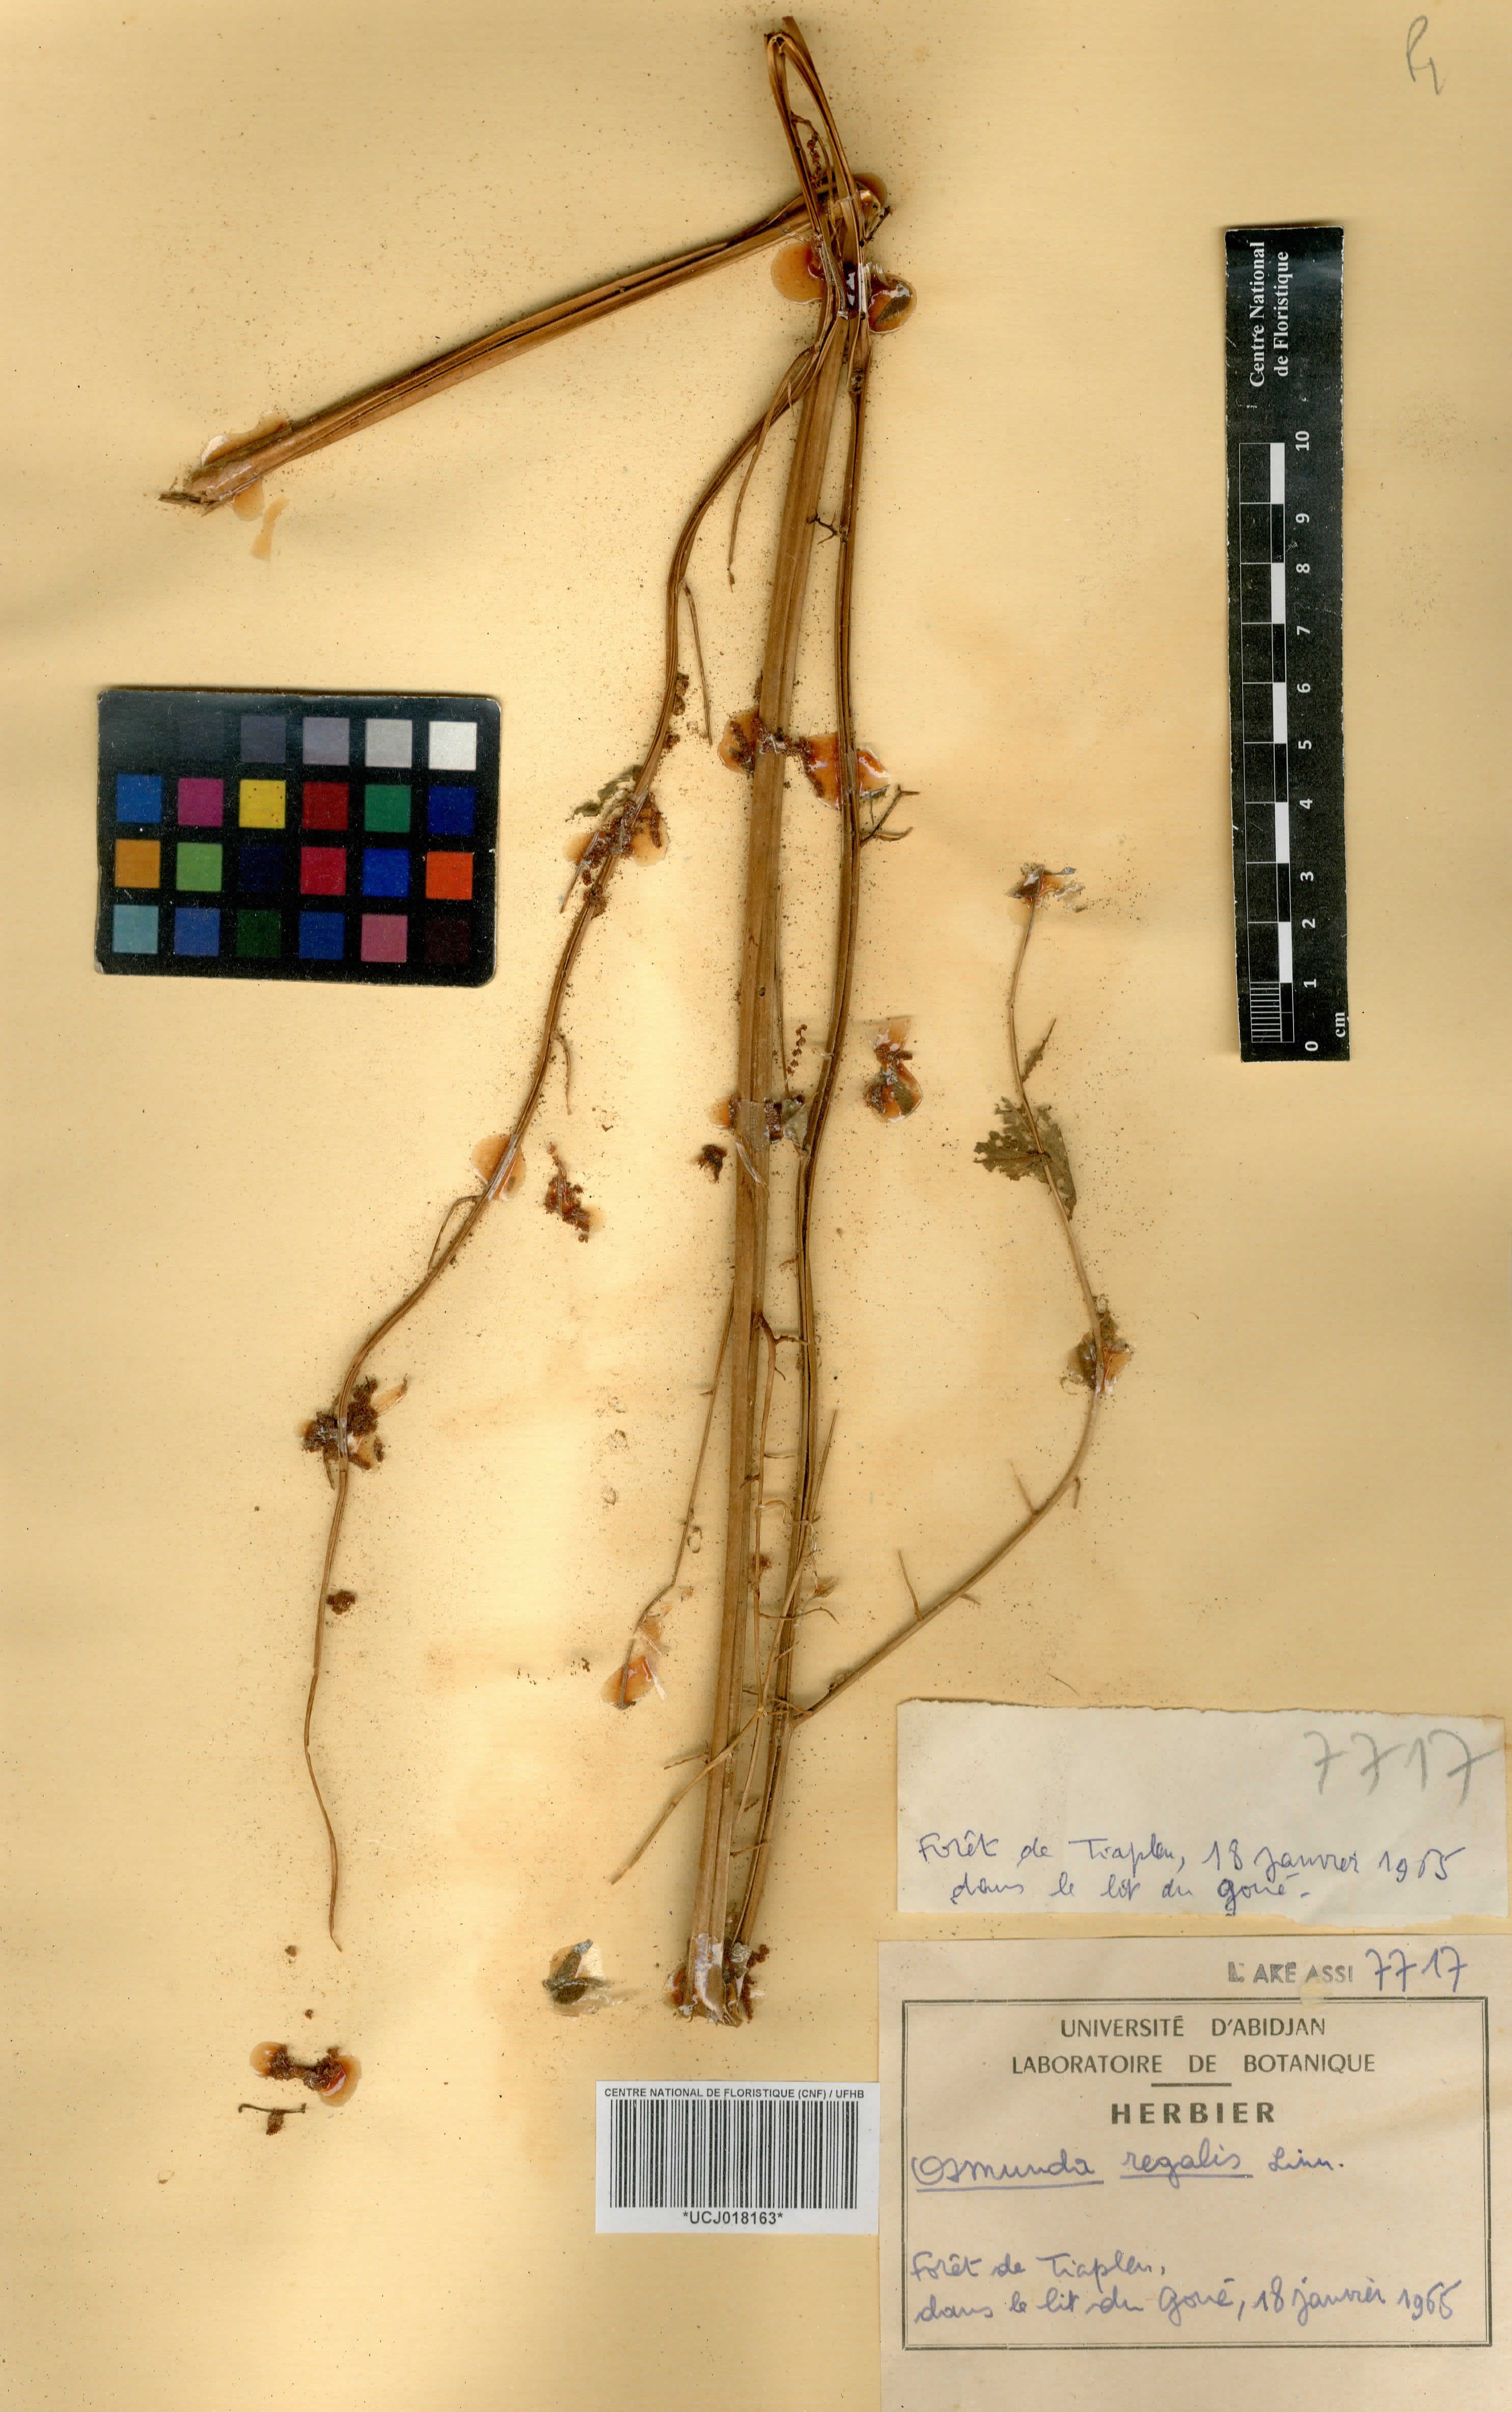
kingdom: Plantae
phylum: Tracheophyta
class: Polypodiopsida
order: Osmundales
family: Osmundaceae
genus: Osmunda
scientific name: Osmunda regalis
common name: Royal fern
